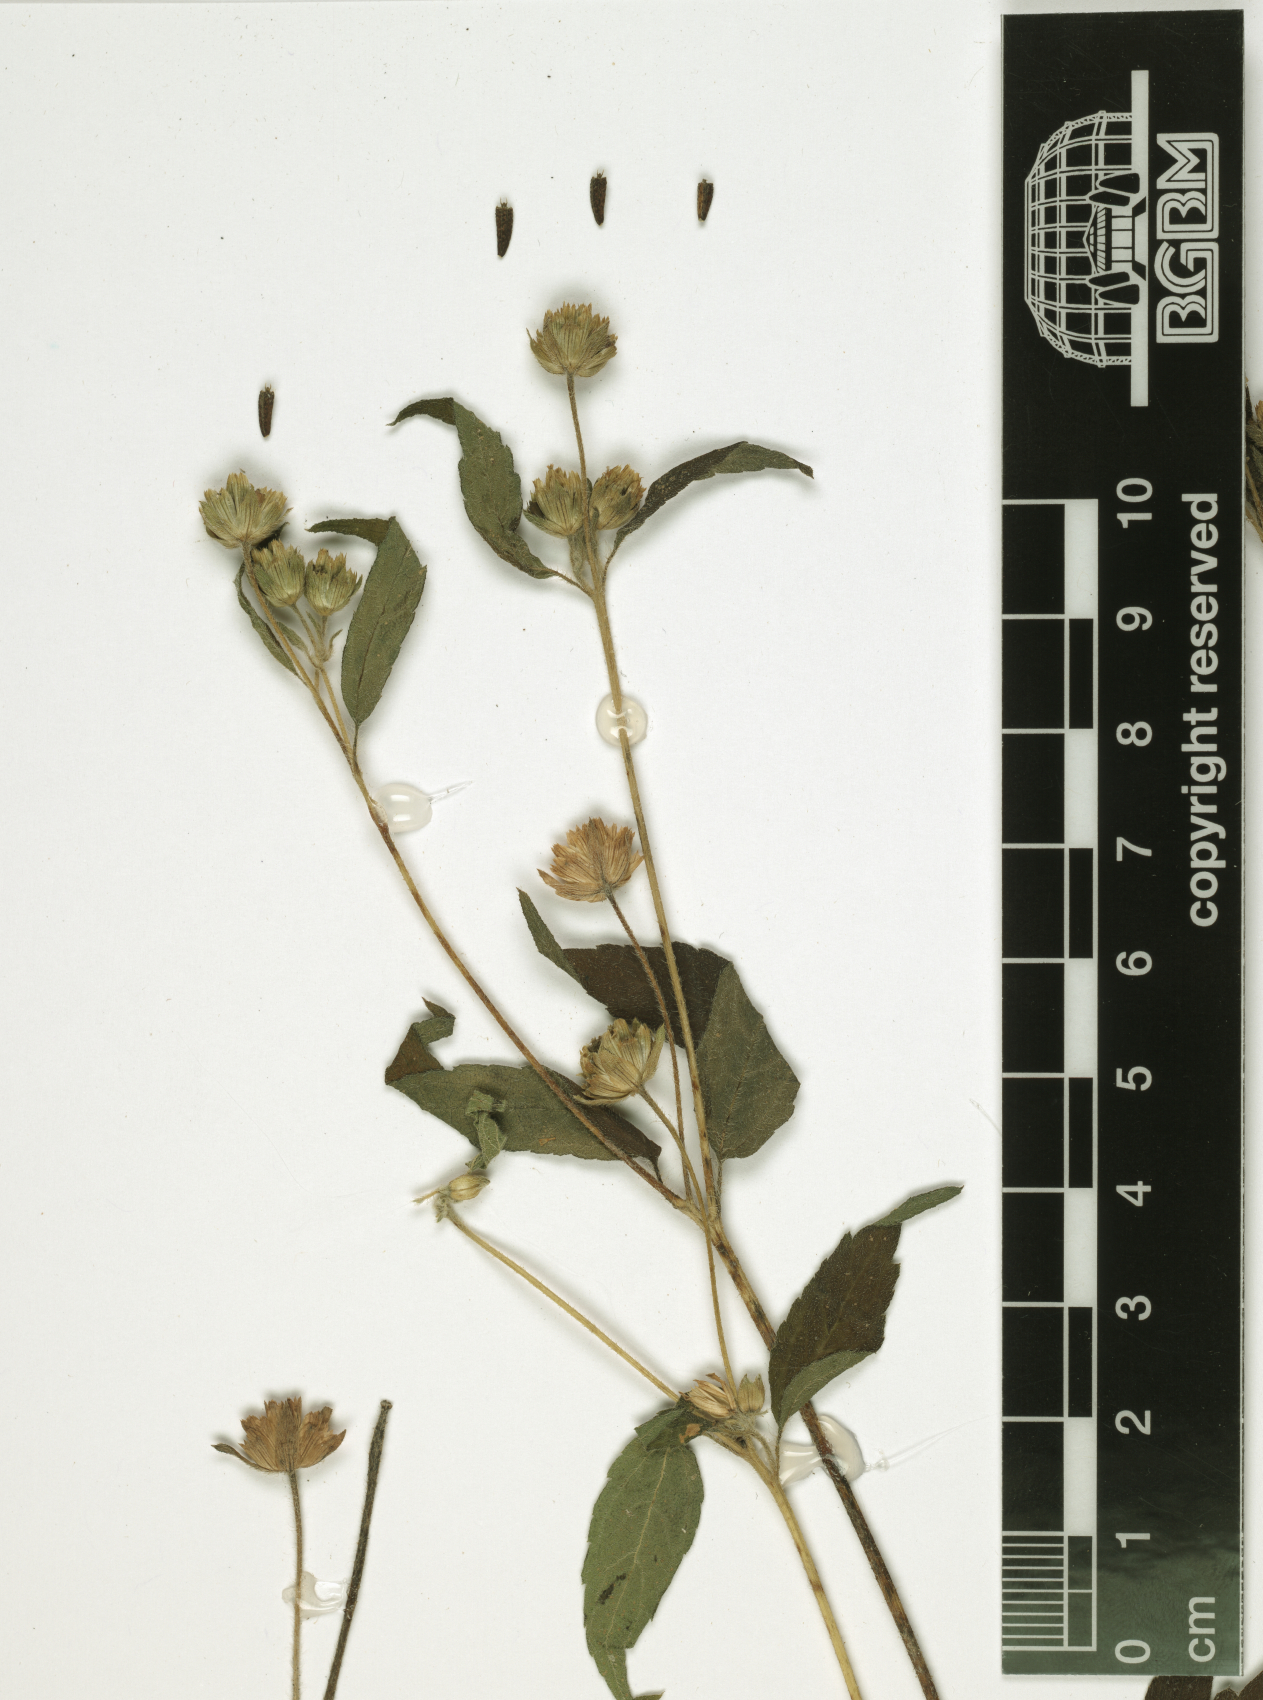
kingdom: Plantae
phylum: Tracheophyta
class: Magnoliopsida
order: Asterales
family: Asteraceae
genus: Blainvillea
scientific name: Blainvillea acmella
